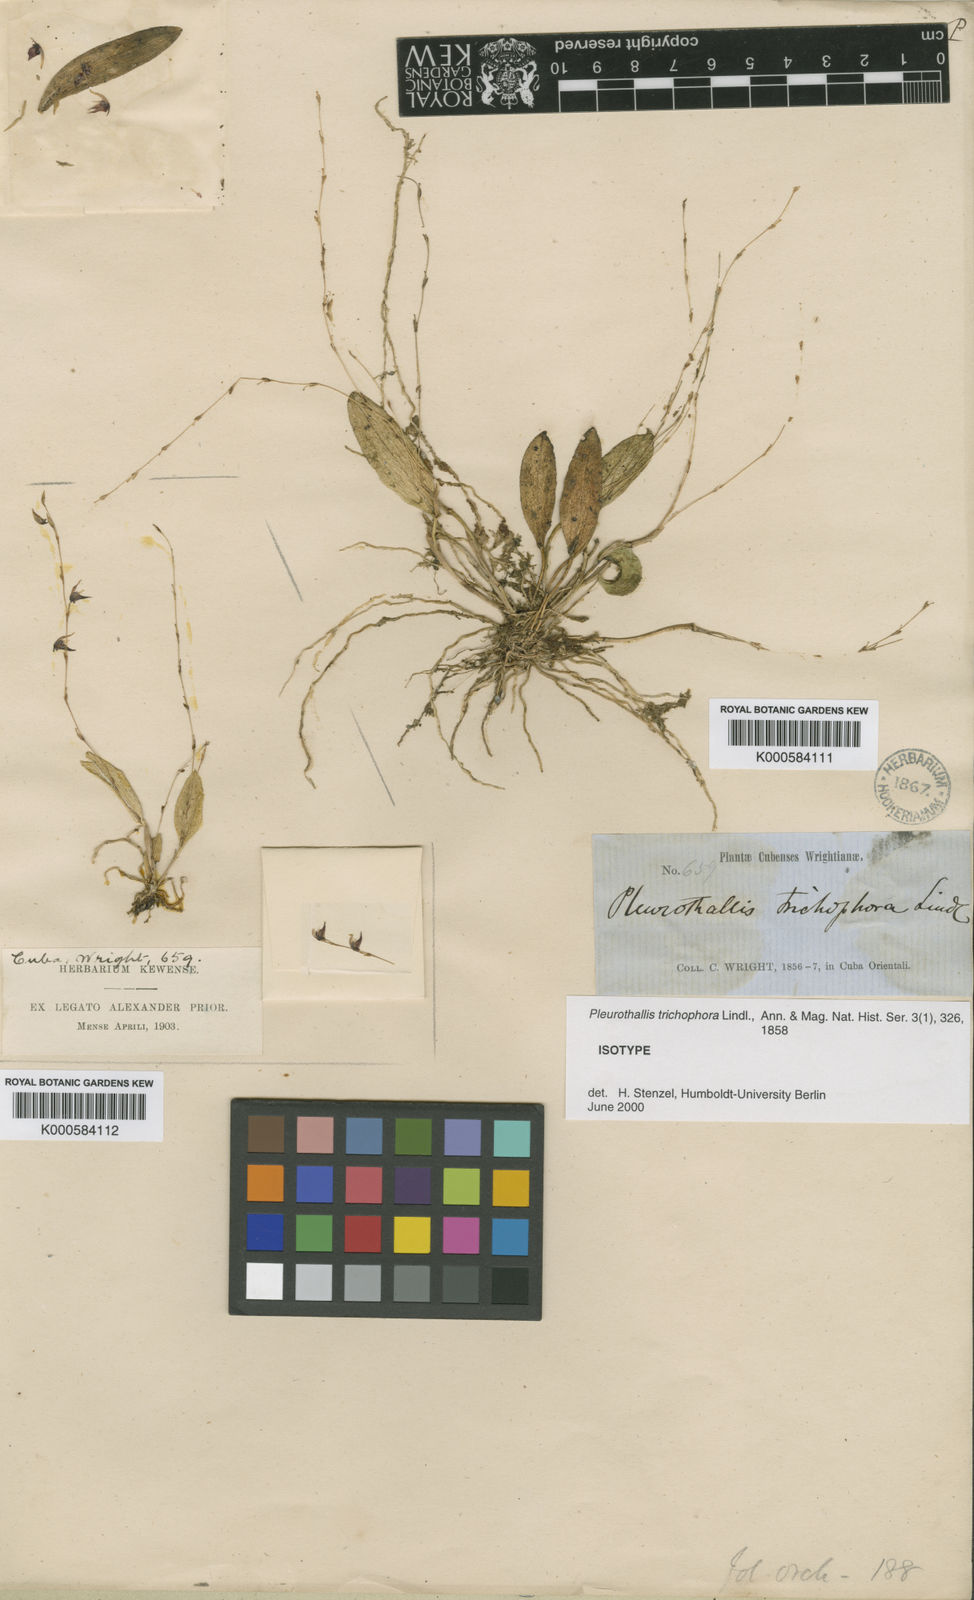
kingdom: Plantae
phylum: Tracheophyta
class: Liliopsida
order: Asparagales
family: Orchidaceae
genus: Acianthera
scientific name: Acianthera trichophora
